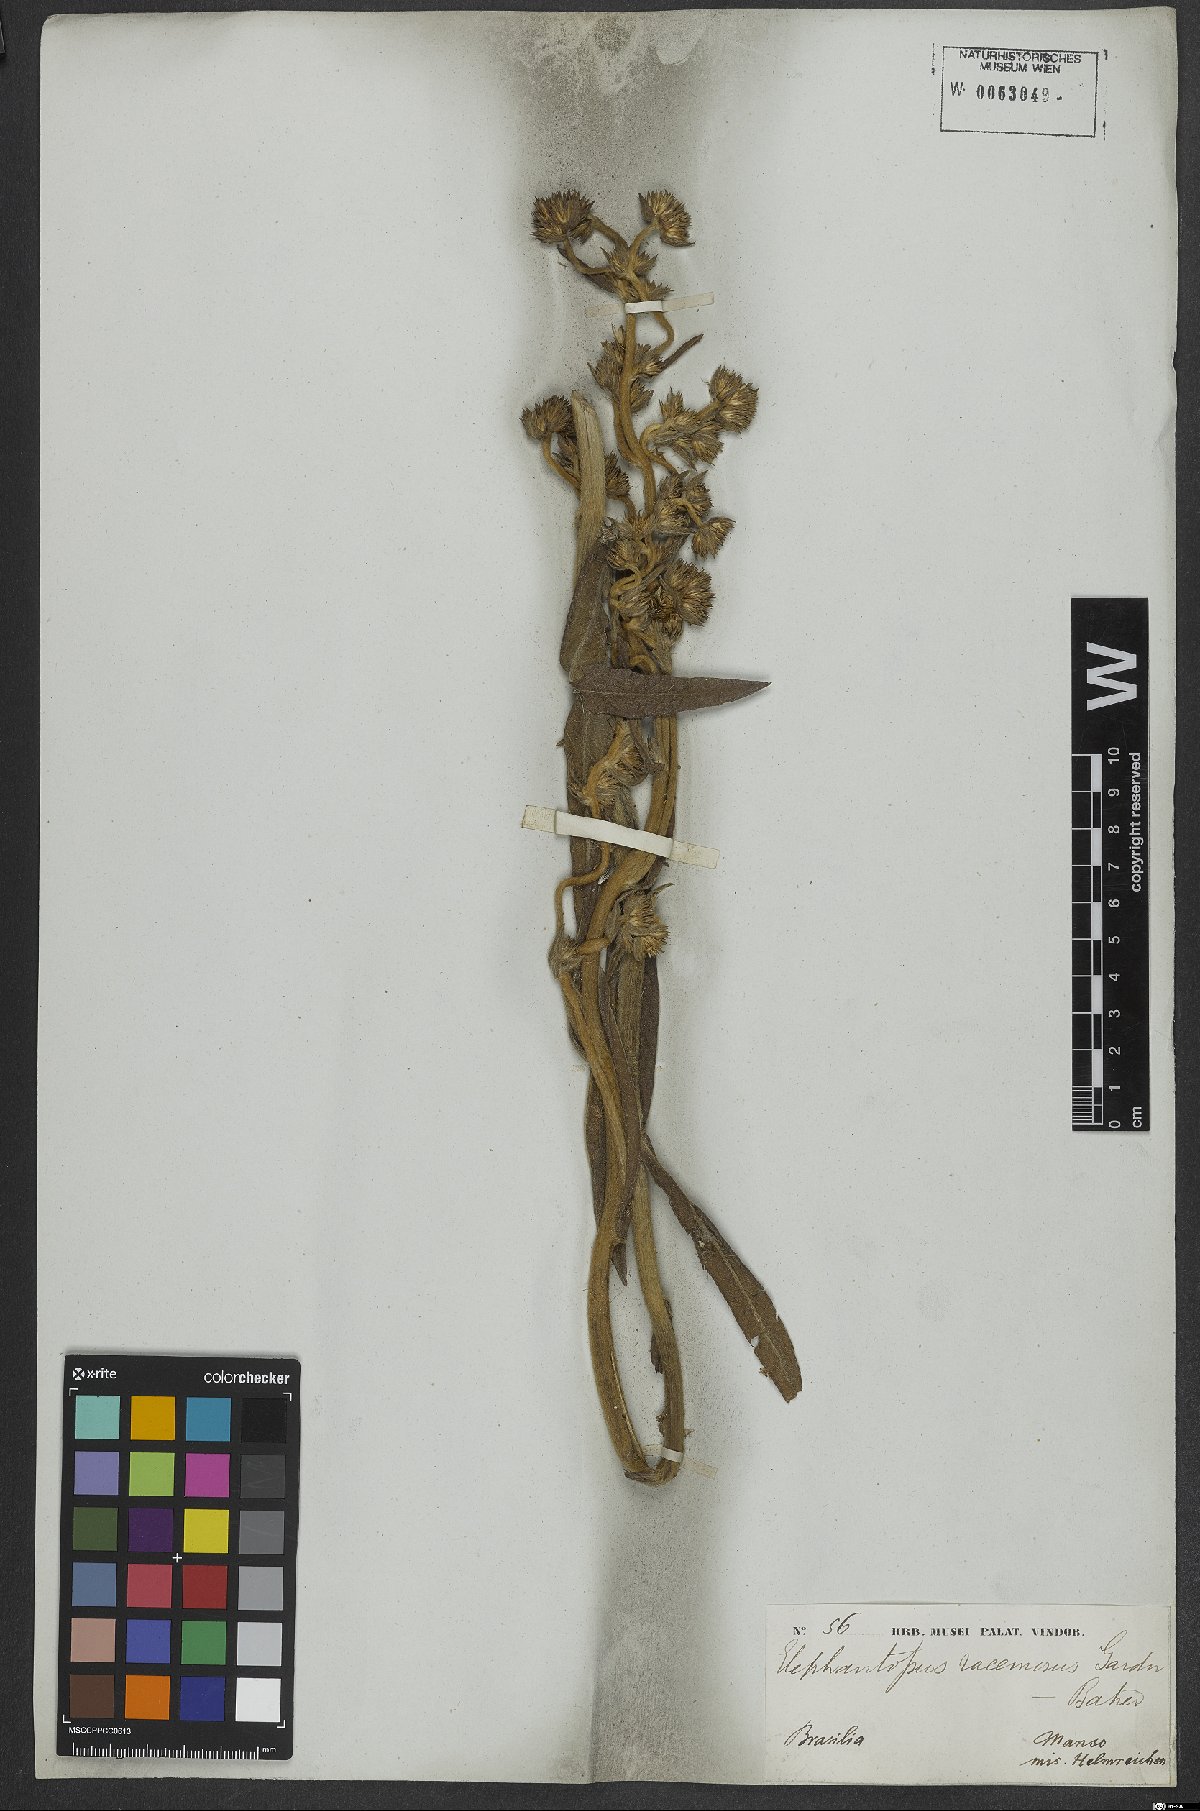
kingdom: Plantae
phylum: Tracheophyta
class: Magnoliopsida
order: Asterales
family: Asteraceae
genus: Elephantopus
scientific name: Elephantopus racemosus
